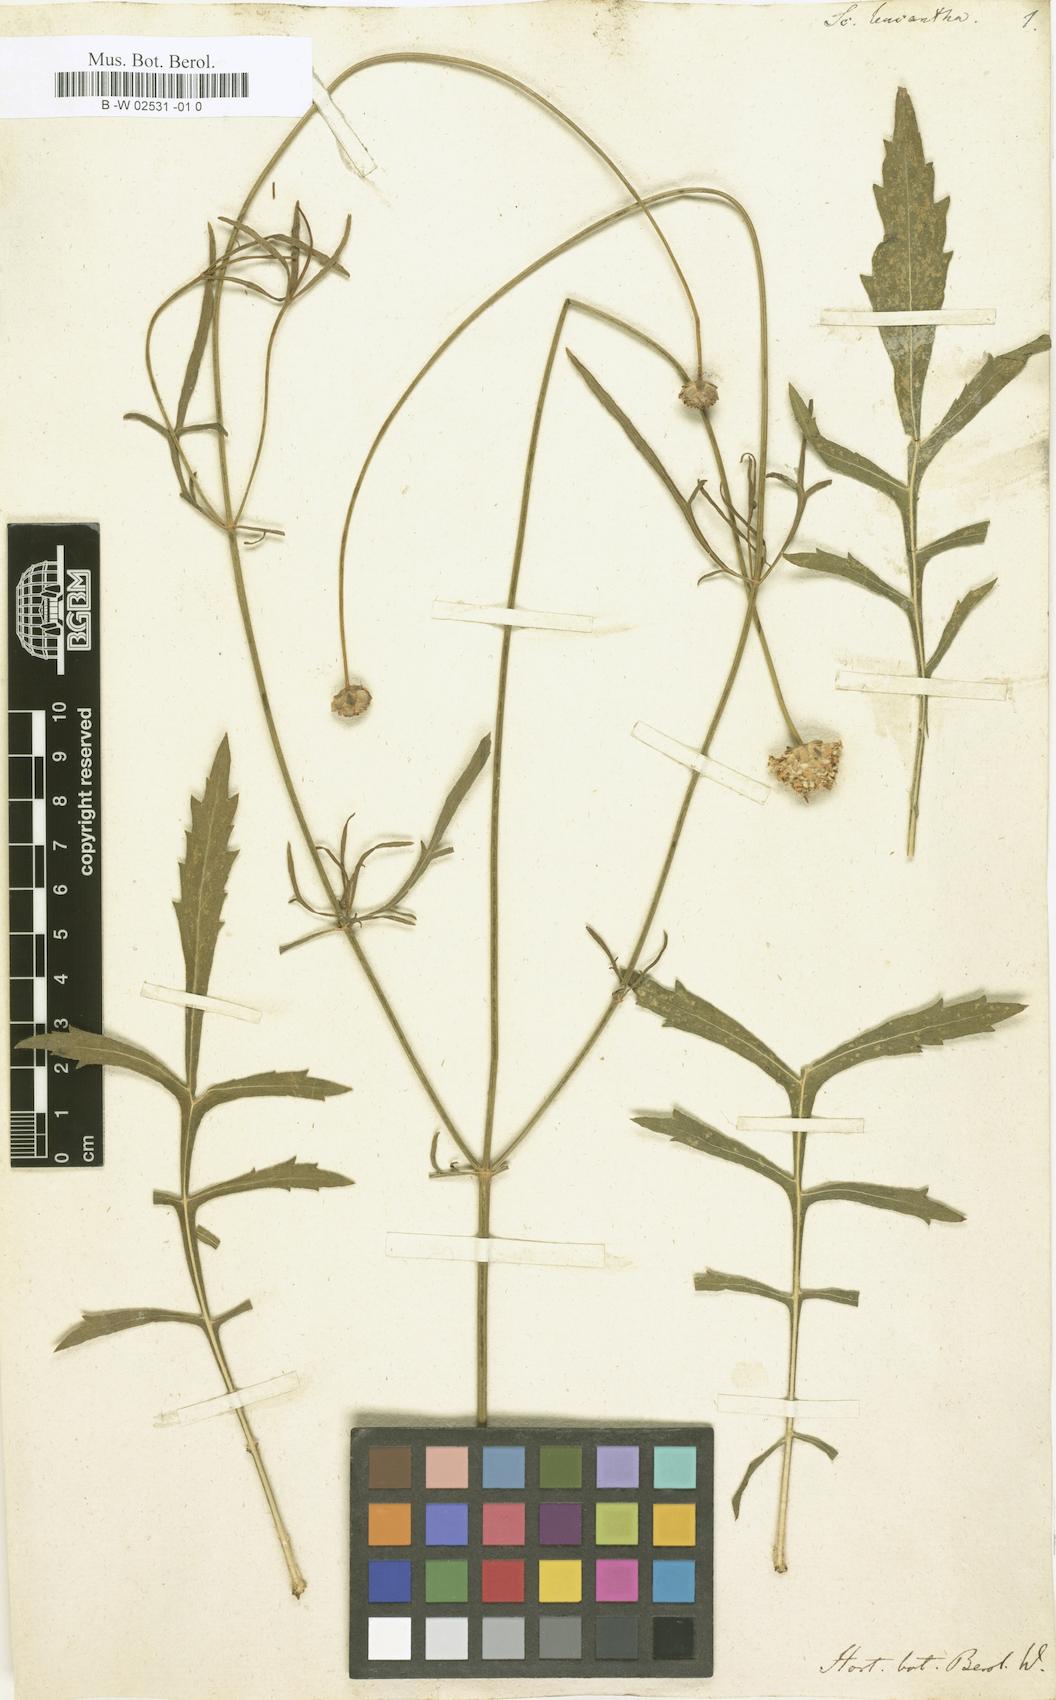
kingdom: Plantae
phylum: Tracheophyta
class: Magnoliopsida
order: Dipsacales
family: Caprifoliaceae
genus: Cephalaria
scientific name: Cephalaria leucantha
